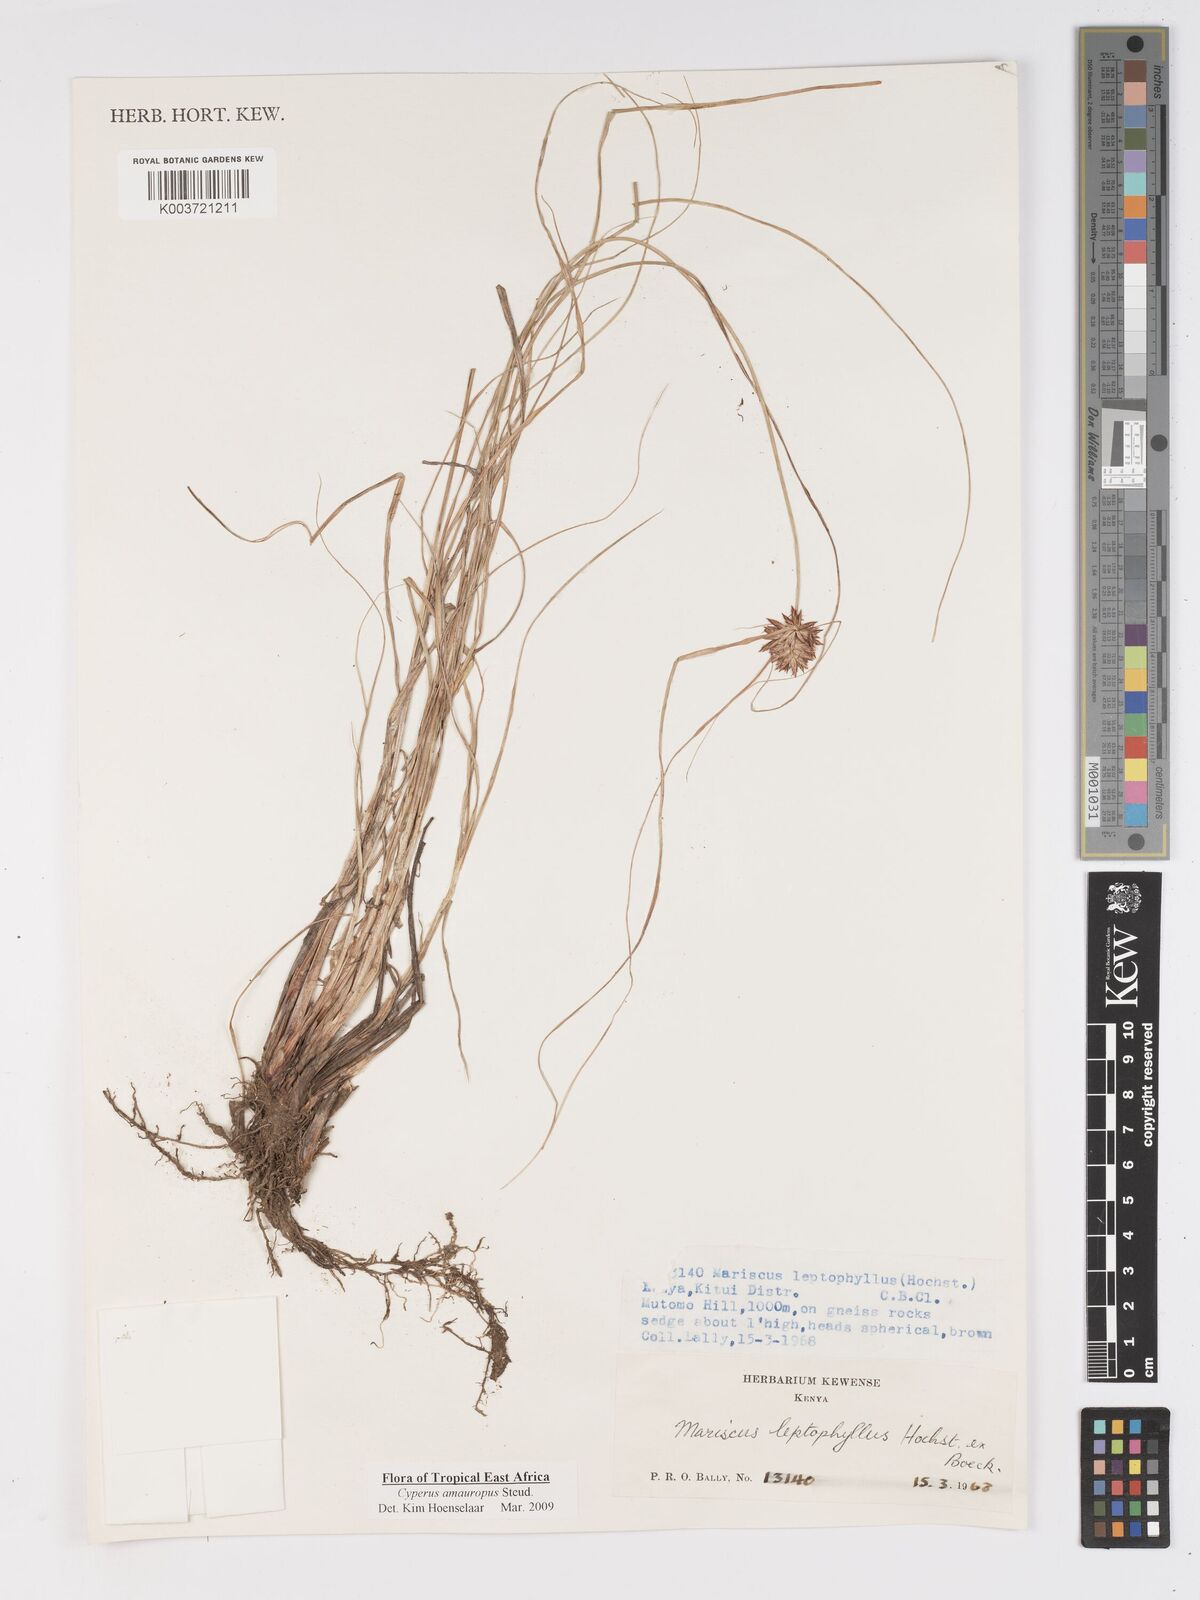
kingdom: Plantae
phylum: Tracheophyta
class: Liliopsida
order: Poales
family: Cyperaceae
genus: Cyperus
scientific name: Cyperus amauropus
